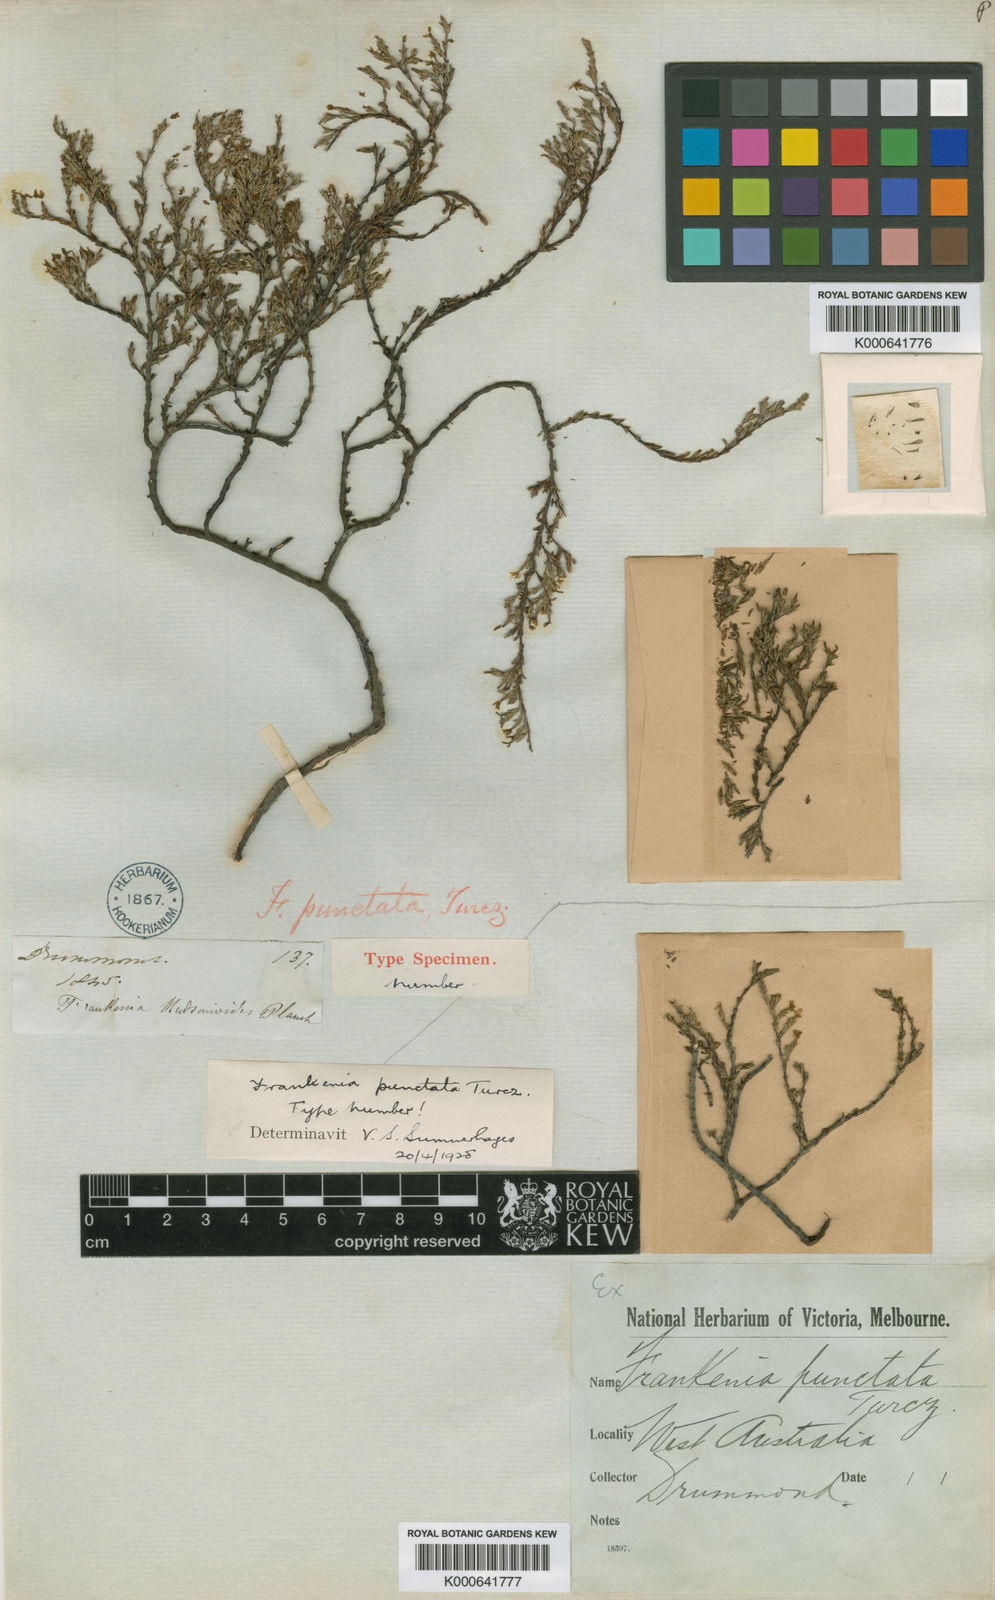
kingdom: Plantae
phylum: Tracheophyta
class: Magnoliopsida
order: Caryophyllales
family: Frankeniaceae
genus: Frankenia
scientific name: Frankenia punctata
